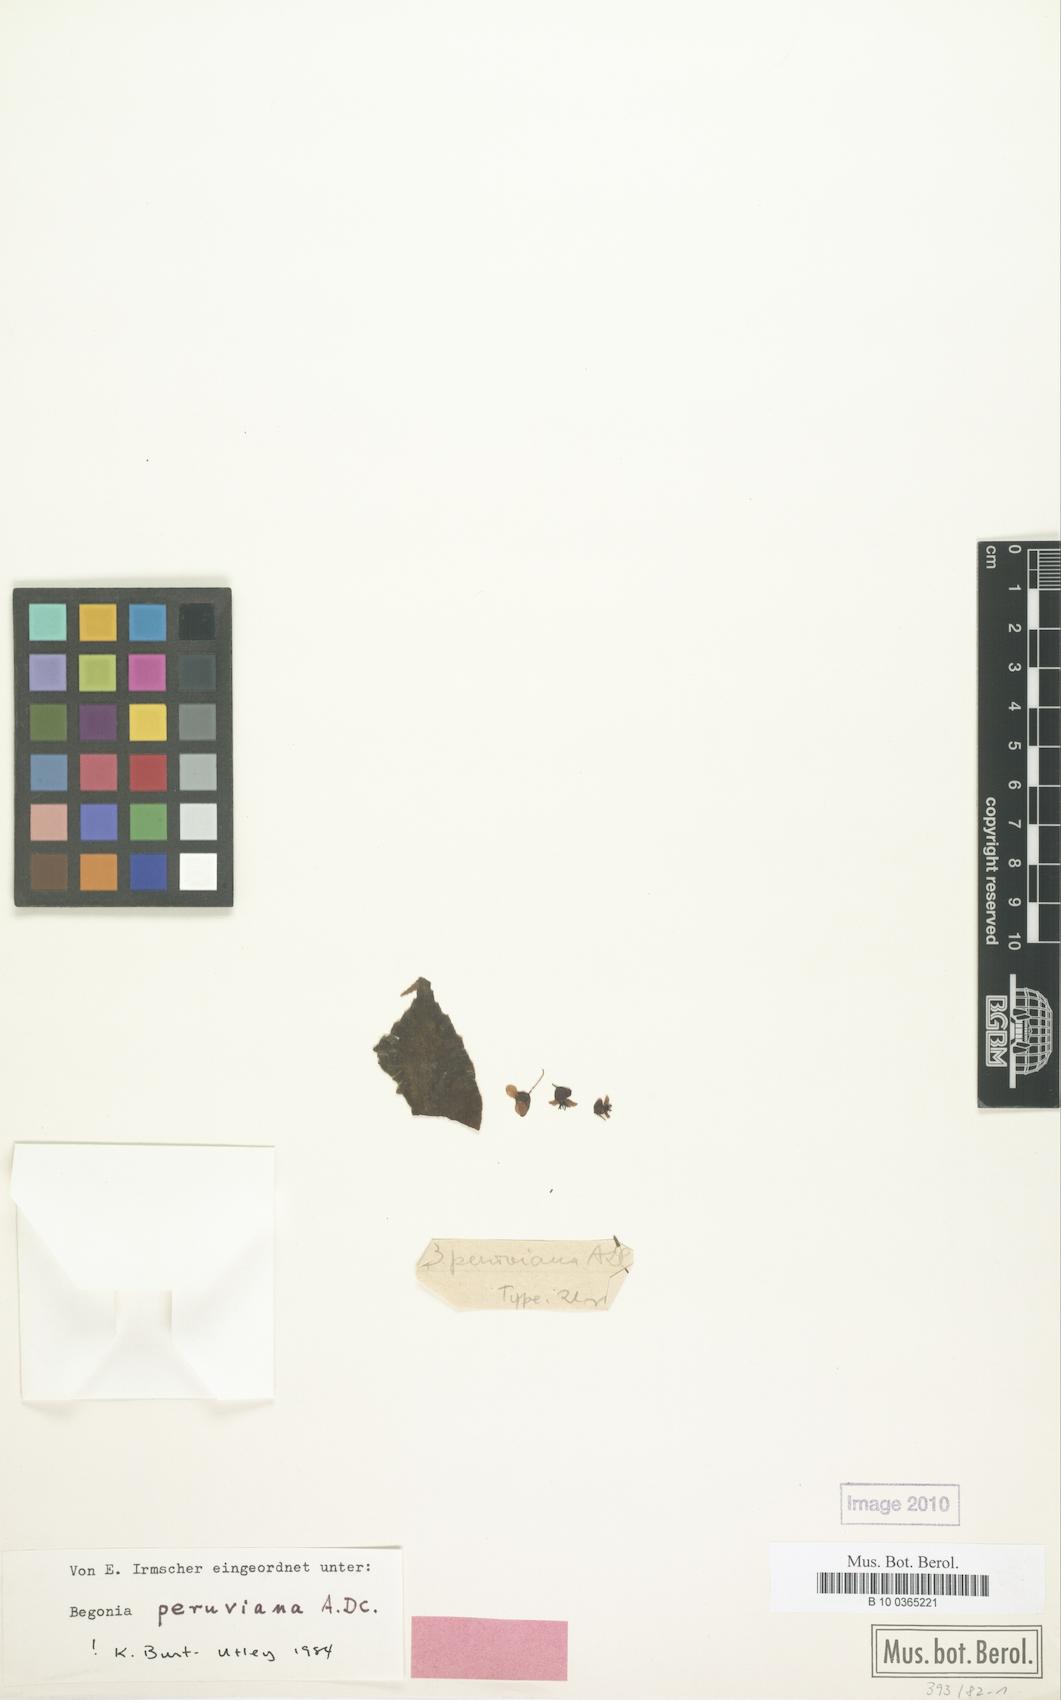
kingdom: Plantae
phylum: Tracheophyta
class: Magnoliopsida
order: Cucurbitales
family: Begoniaceae
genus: Begonia
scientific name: Begonia peruviana
